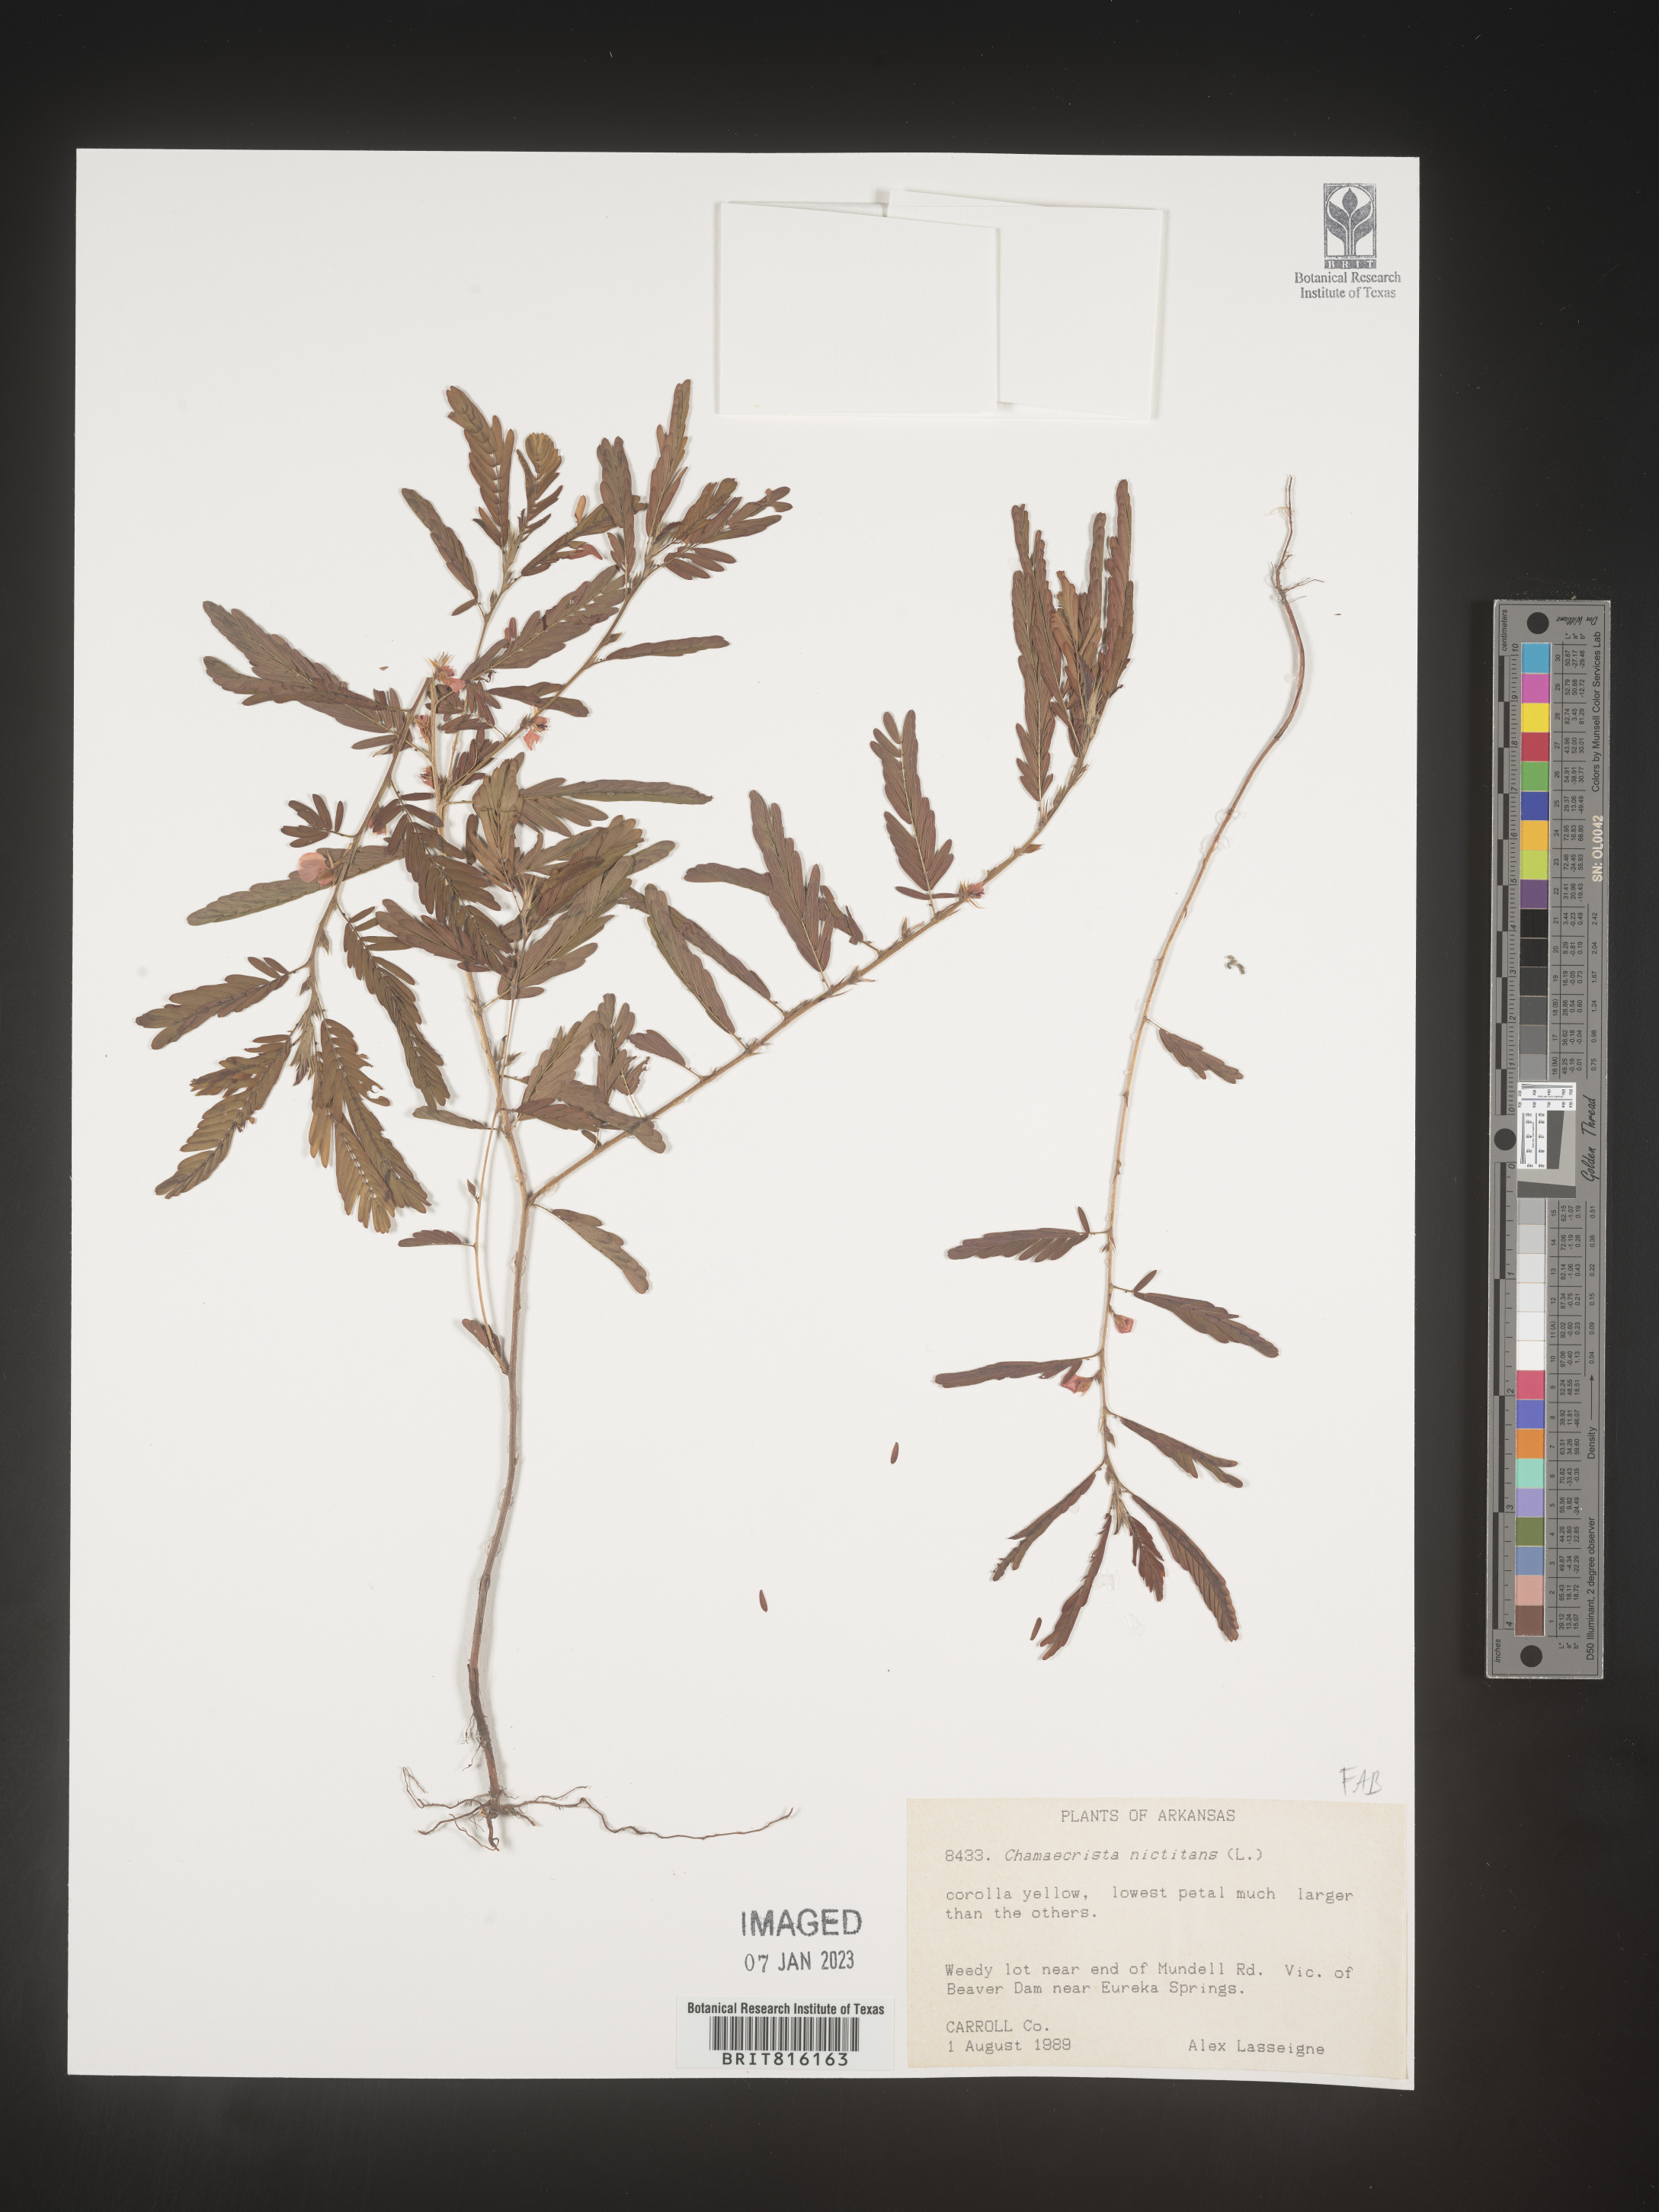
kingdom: Plantae
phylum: Tracheophyta
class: Magnoliopsida
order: Fabales
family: Fabaceae
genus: Chamaecrista
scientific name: Chamaecrista
